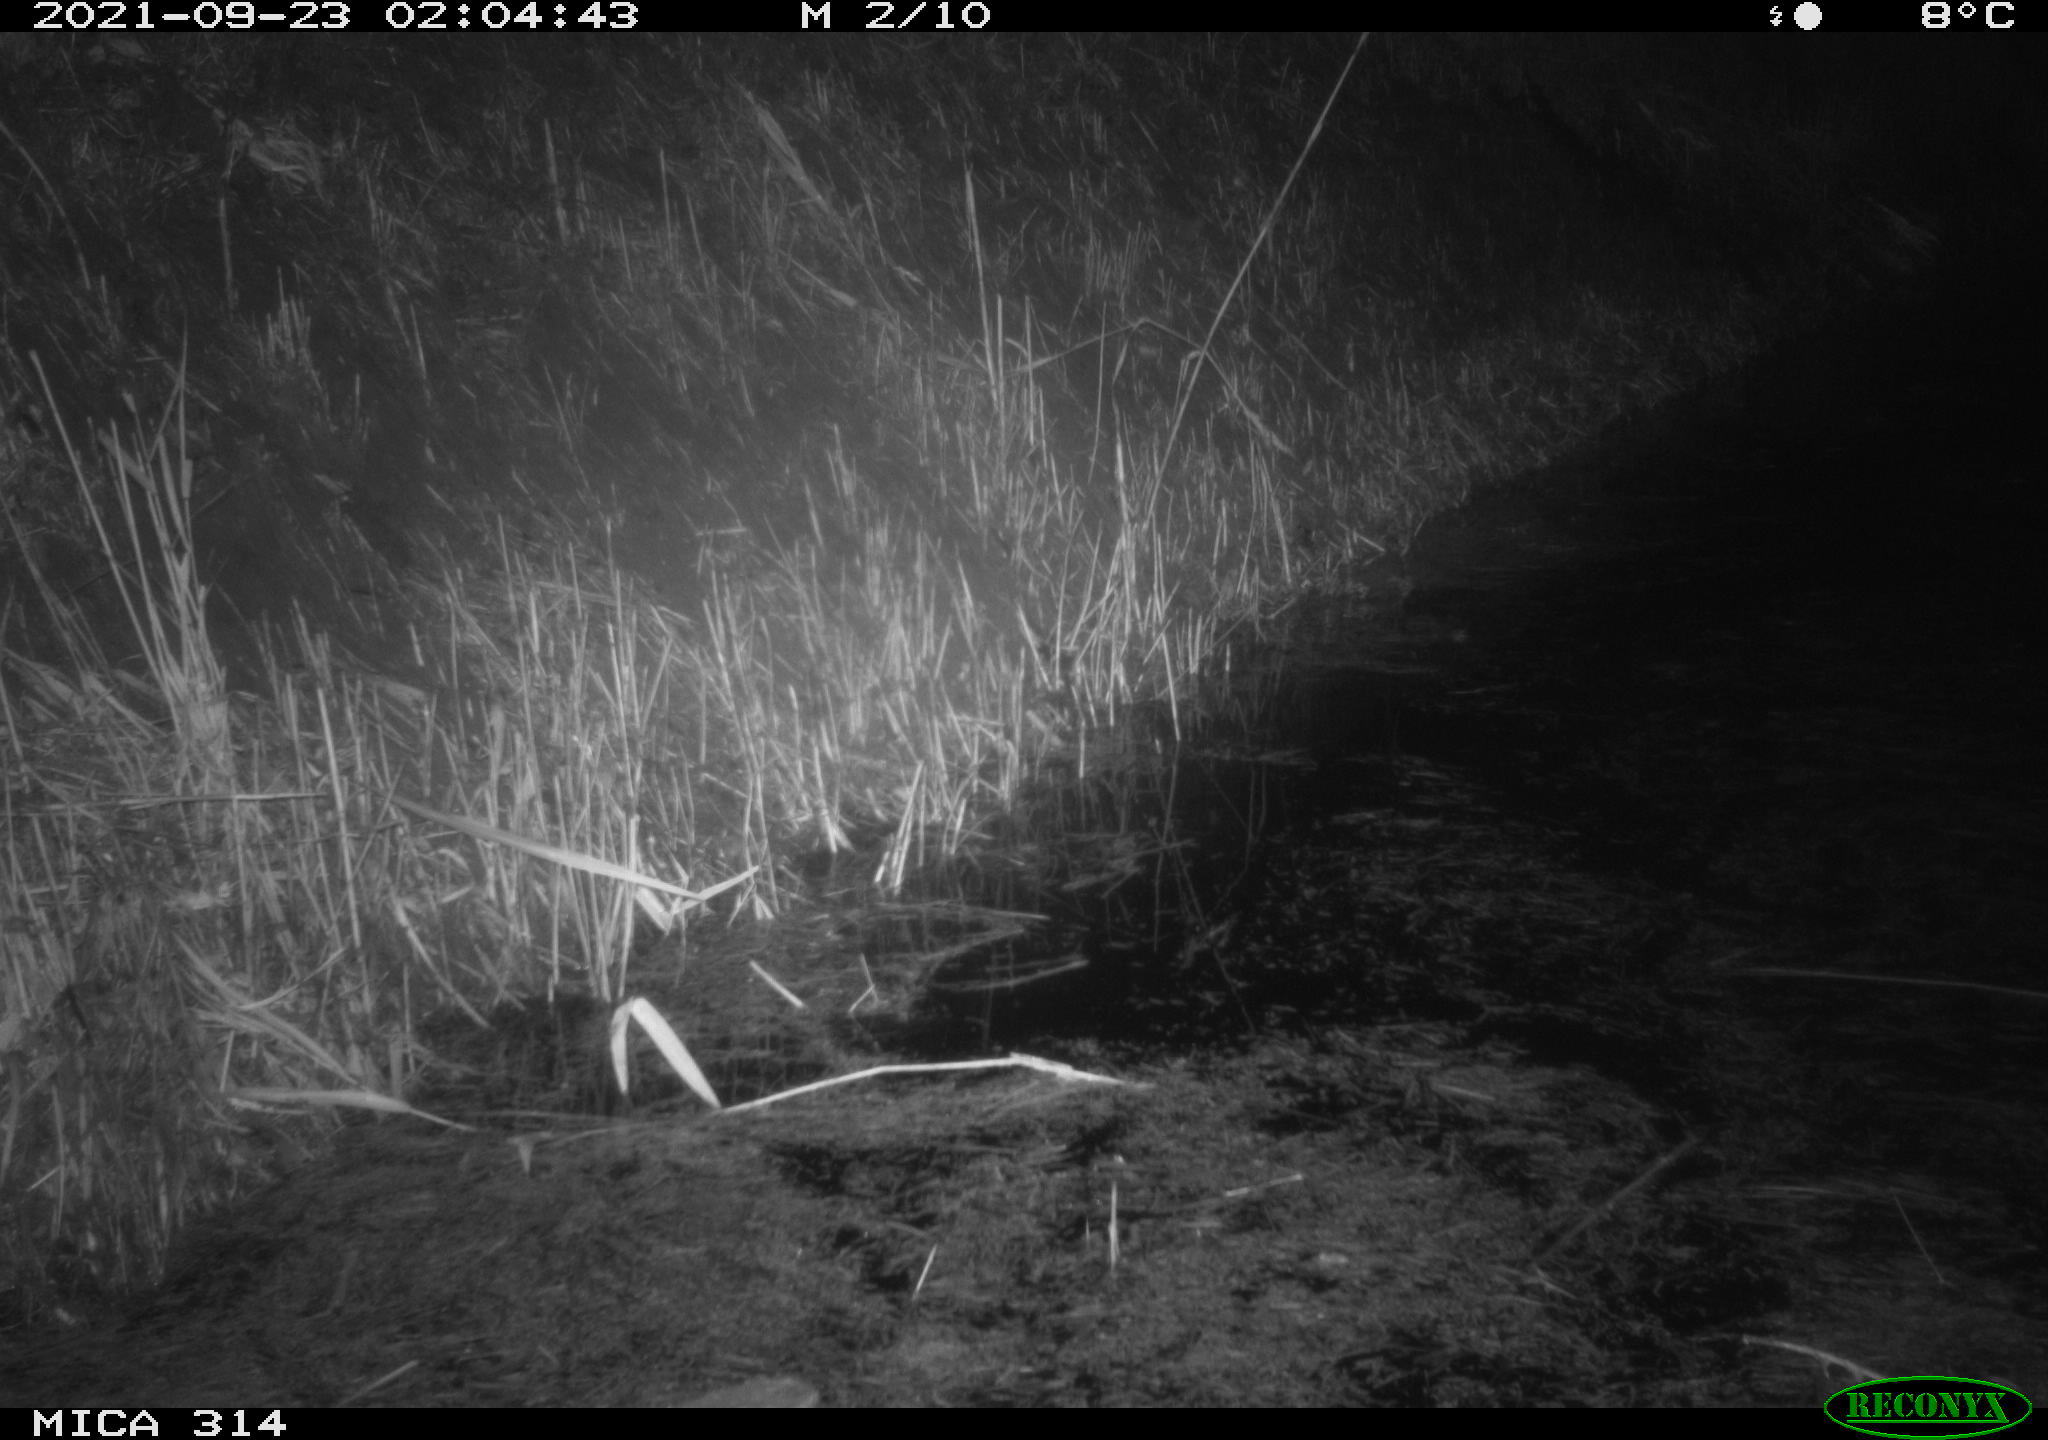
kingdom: Animalia
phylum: Chordata
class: Mammalia
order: Rodentia
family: Muridae
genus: Rattus
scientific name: Rattus norvegicus
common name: Brown rat
